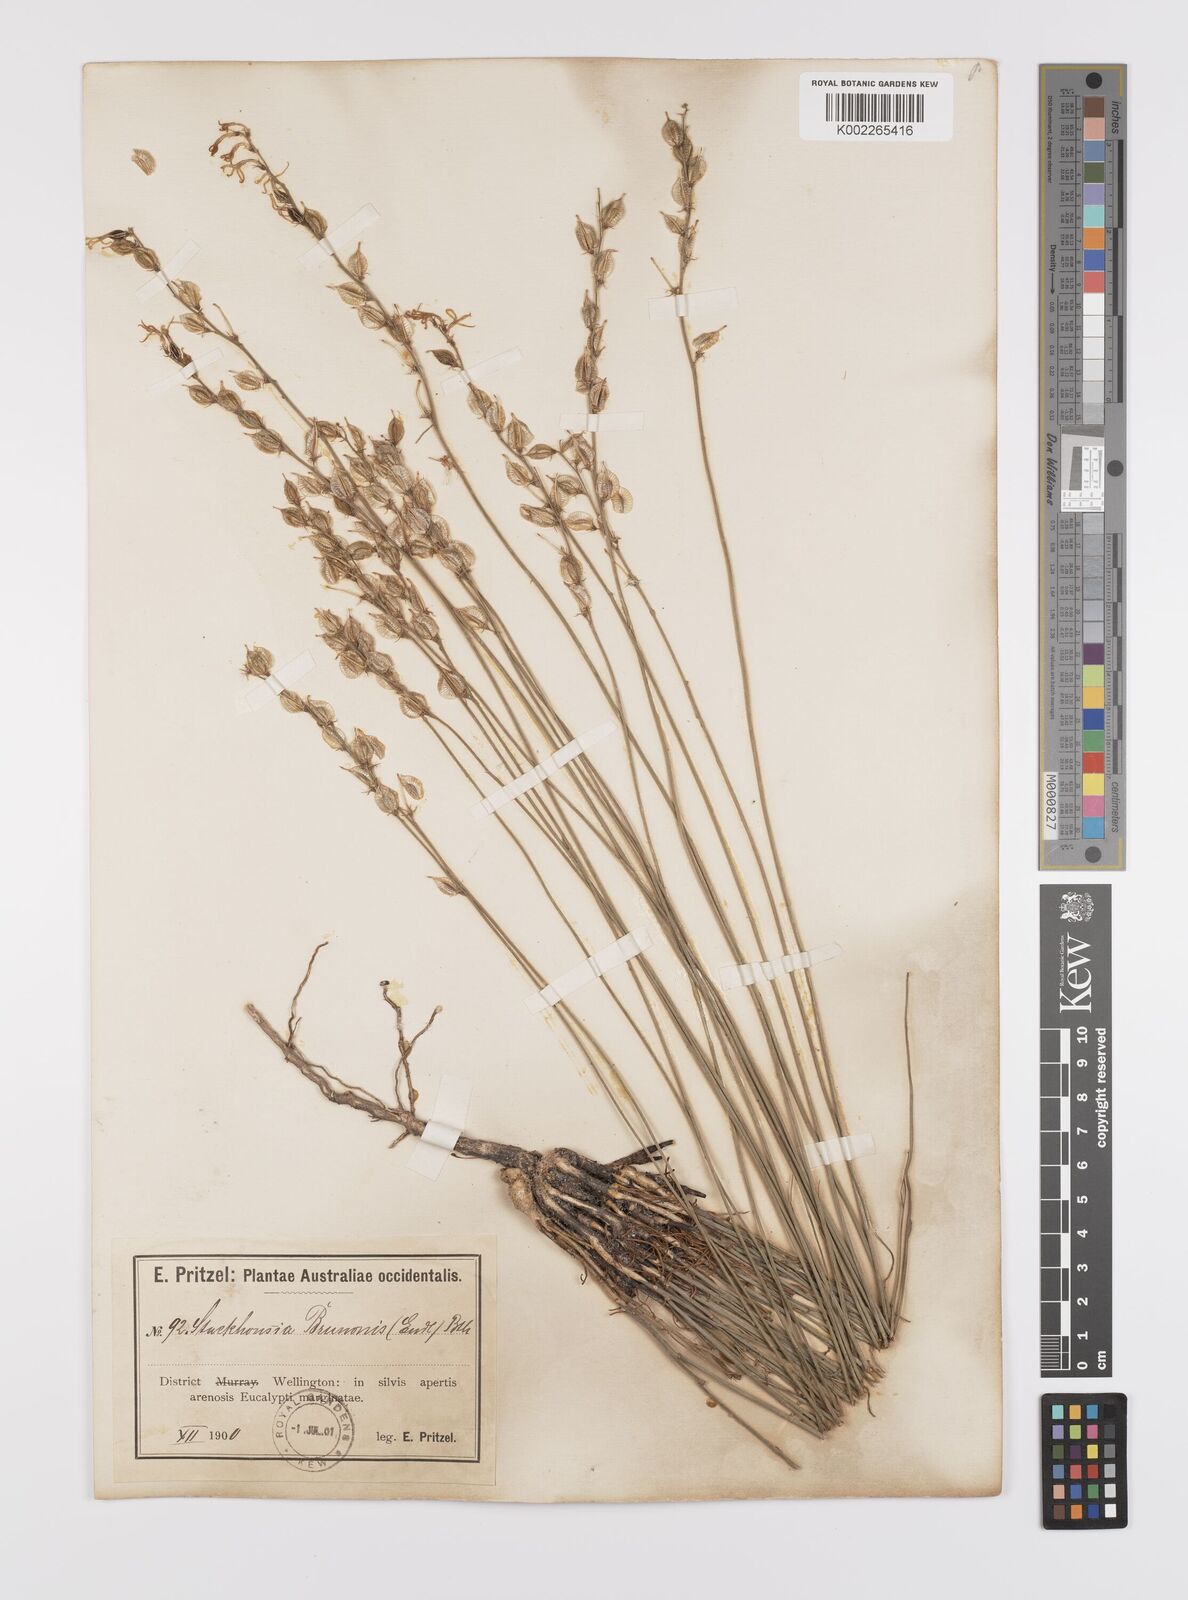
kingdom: Plantae
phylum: Tracheophyta
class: Magnoliopsida
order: Celastrales
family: Celastraceae
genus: Tripterococcus
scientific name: Tripterococcus brunonis
